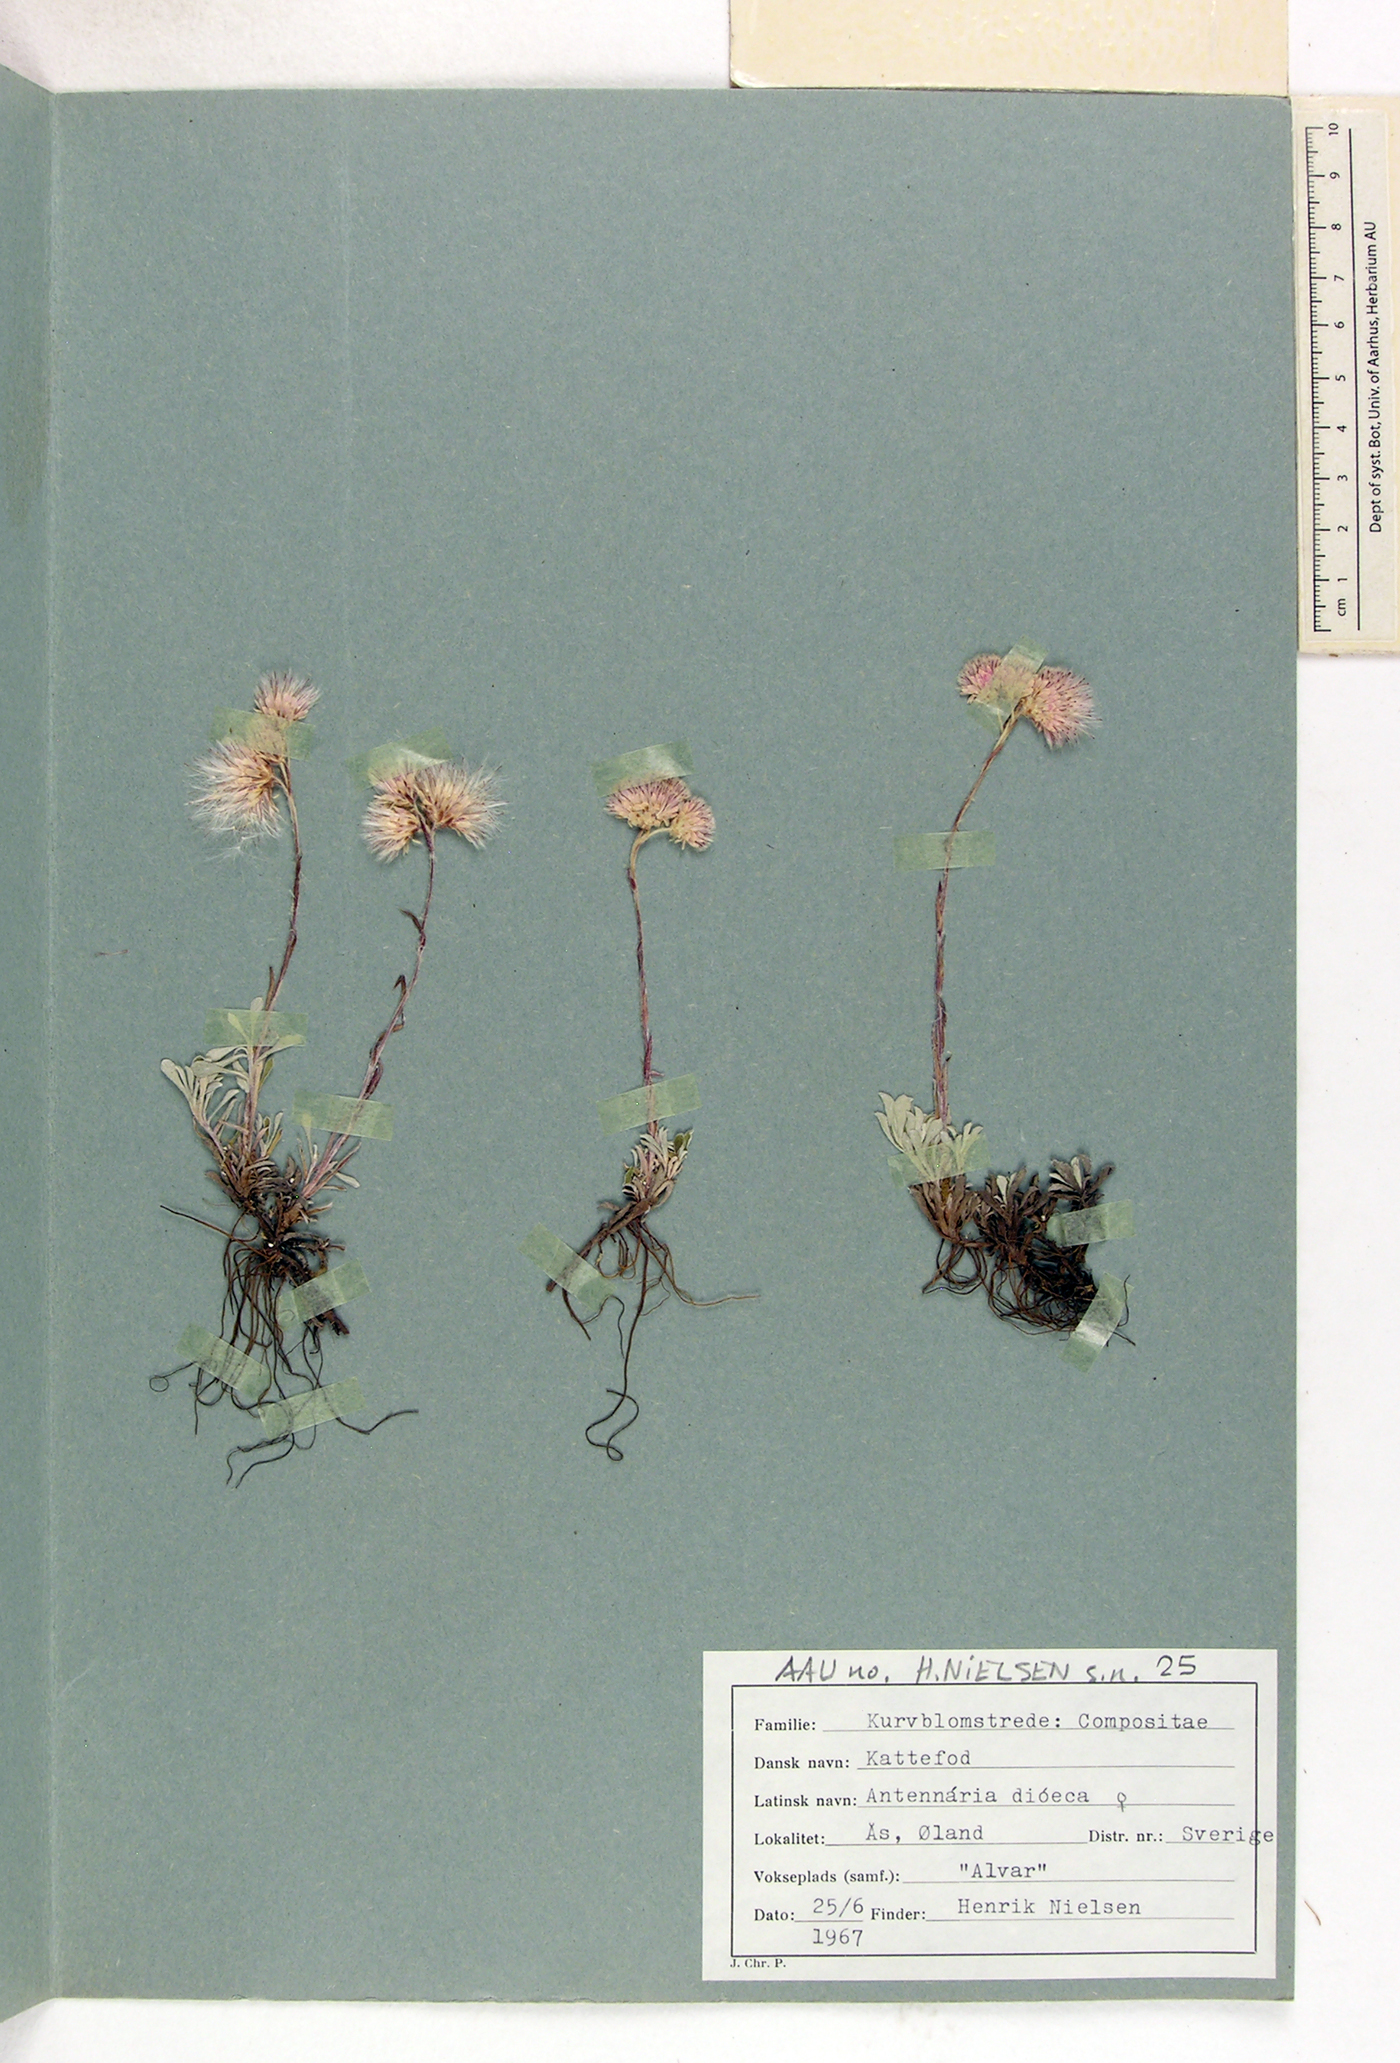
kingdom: Plantae
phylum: Tracheophyta
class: Magnoliopsida
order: Asterales
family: Asteraceae
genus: Antennaria
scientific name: Antennaria dioica
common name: Mountain everlasting
